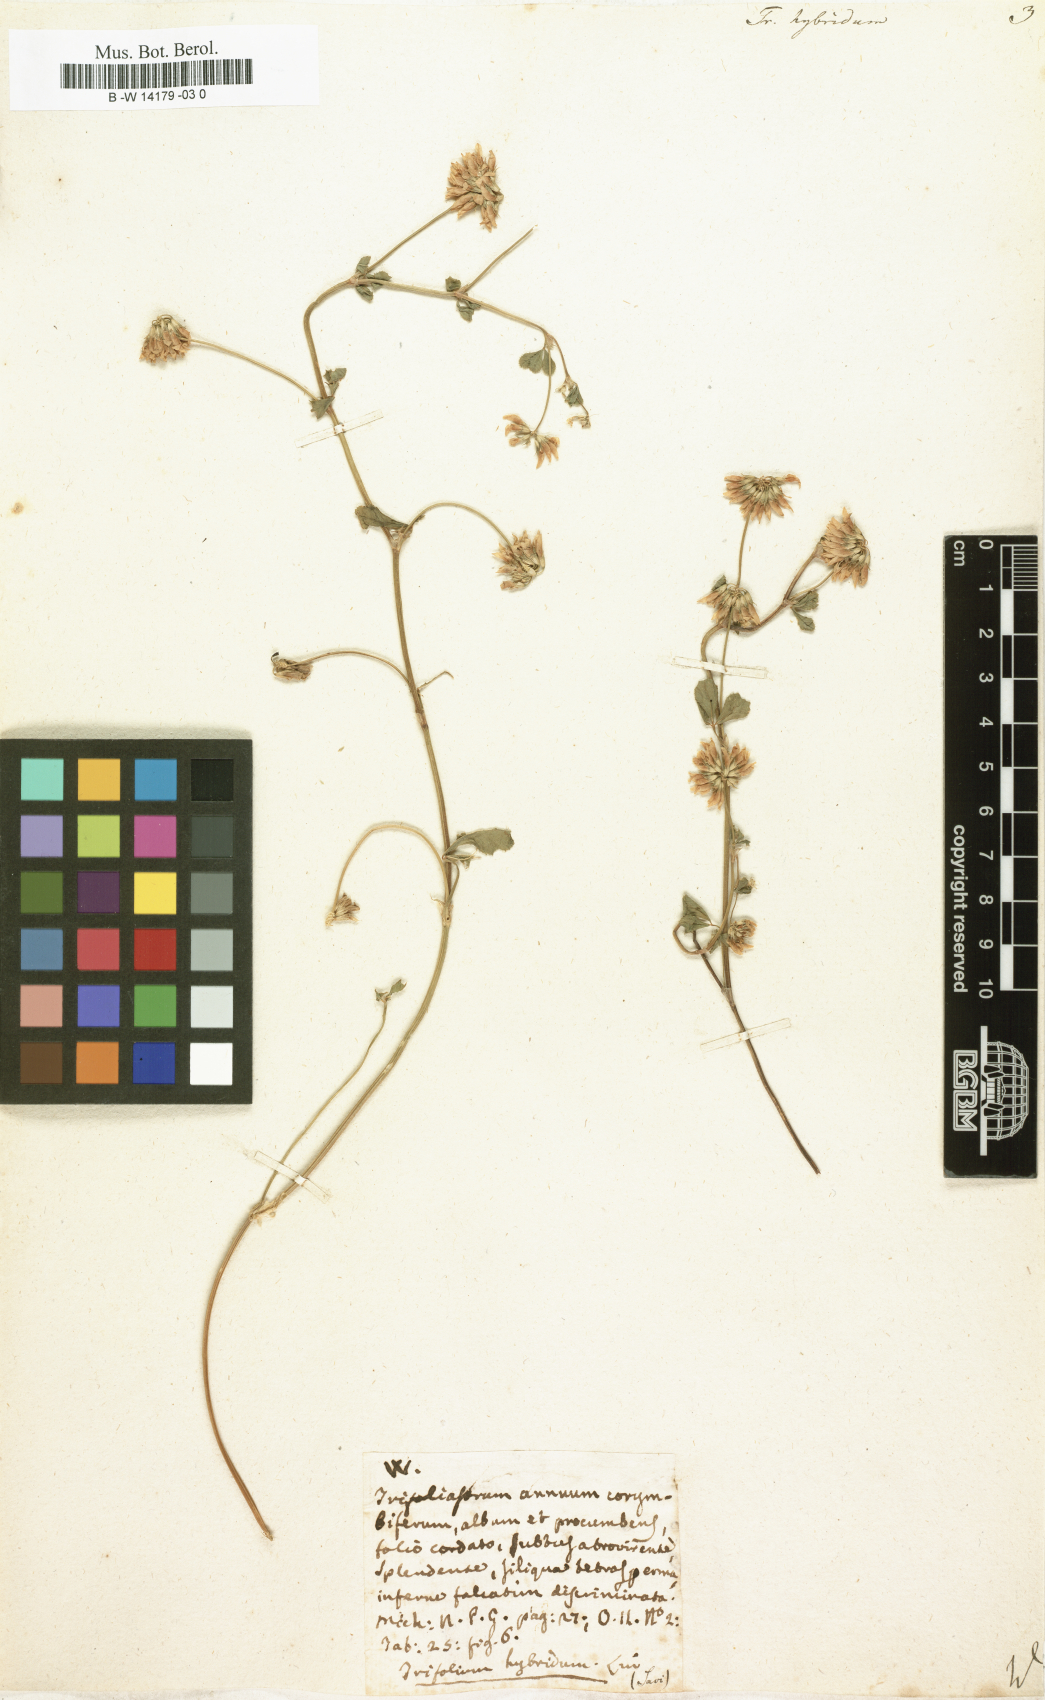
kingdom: Plantae
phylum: Tracheophyta
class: Magnoliopsida
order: Fabales
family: Fabaceae
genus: Trifolium
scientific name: Trifolium hybridum
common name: Alsike clover
